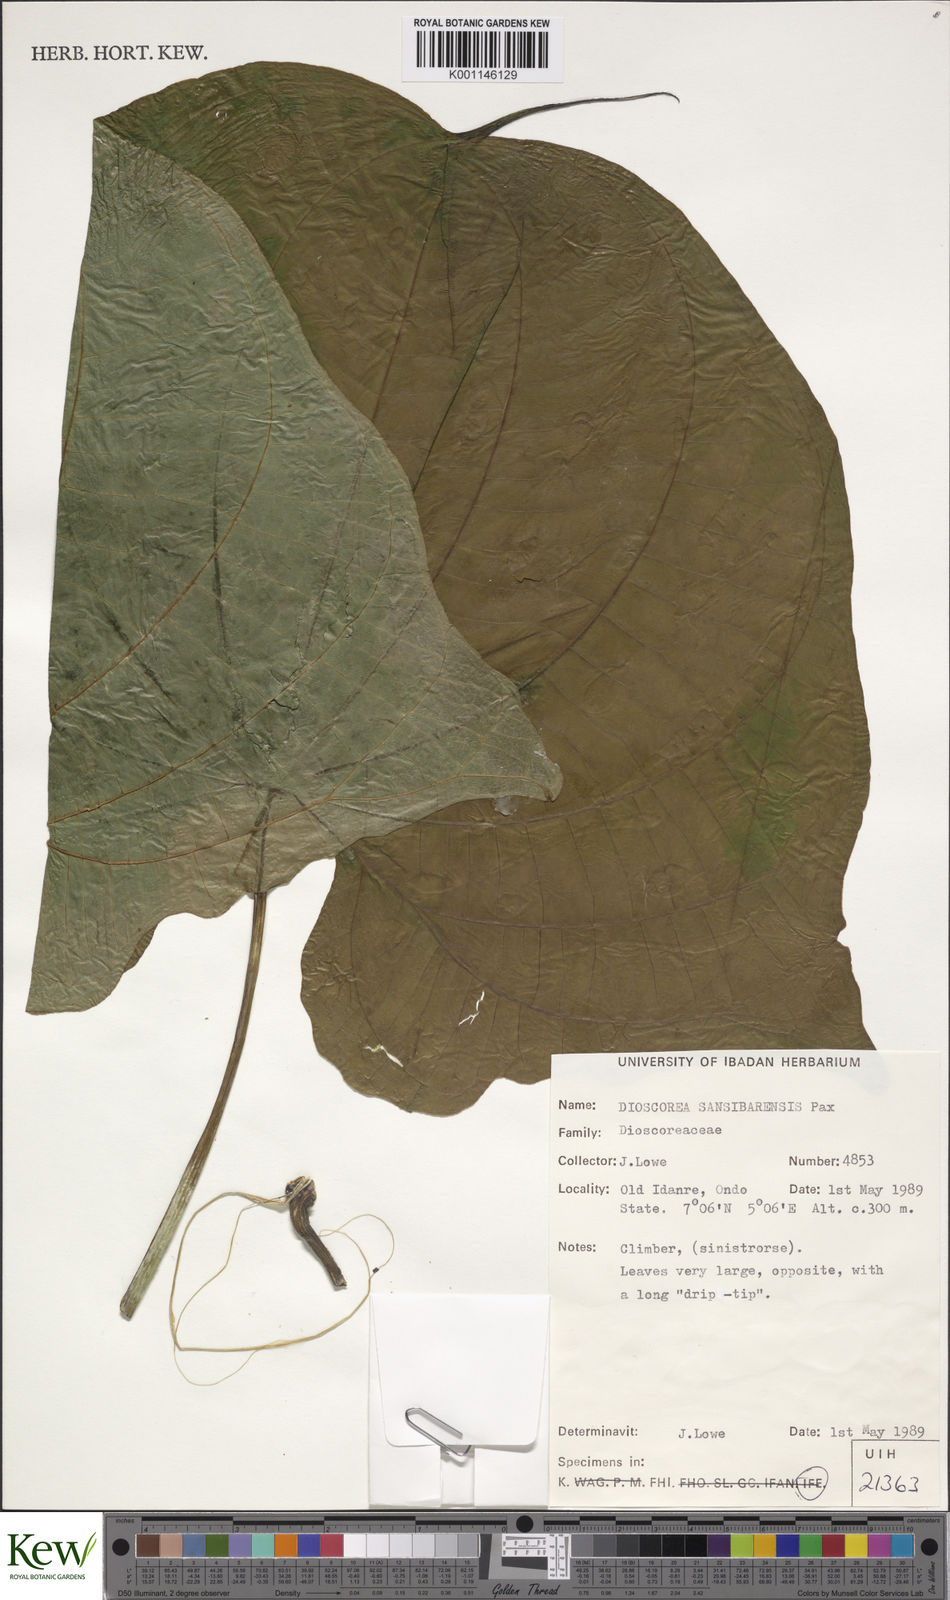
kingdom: Plantae
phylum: Tracheophyta
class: Liliopsida
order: Dioscoreales
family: Dioscoreaceae
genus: Dioscorea
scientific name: Dioscorea sansibarensis
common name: Zanzibar yam
